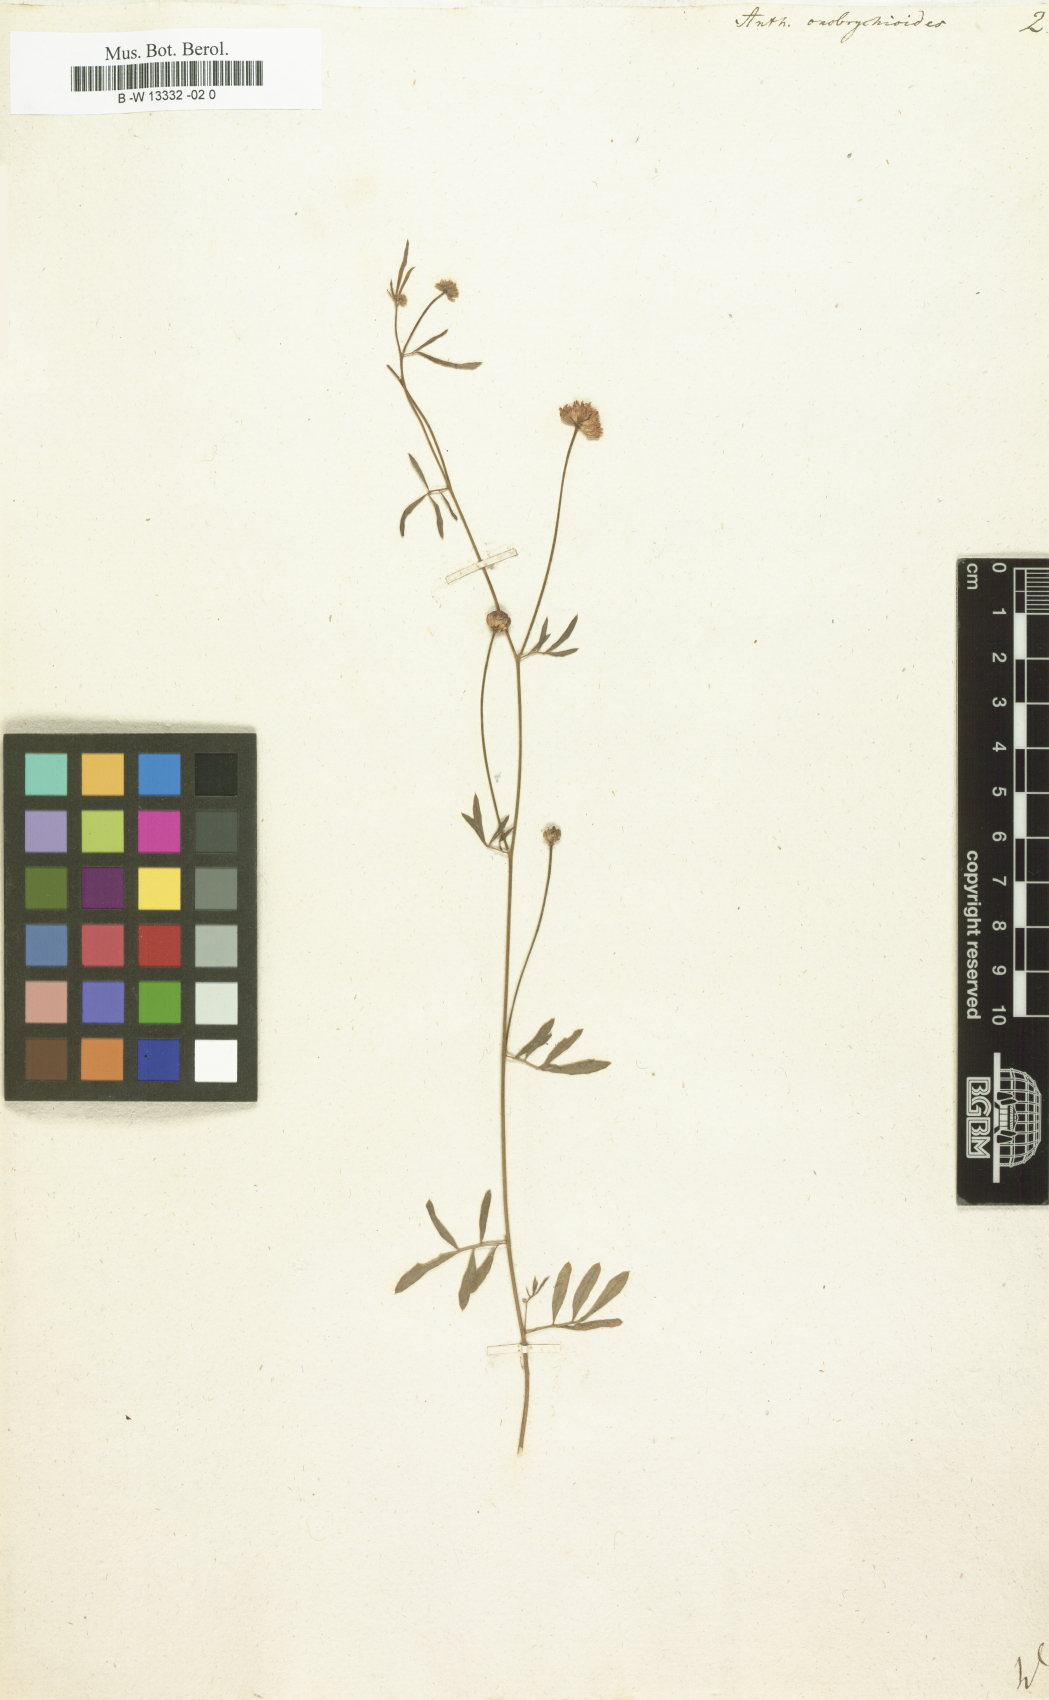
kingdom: Plantae
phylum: Tracheophyta
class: Magnoliopsida
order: Fabales
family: Fabaceae
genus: Anthyllis
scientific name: Anthyllis onobrychioides
